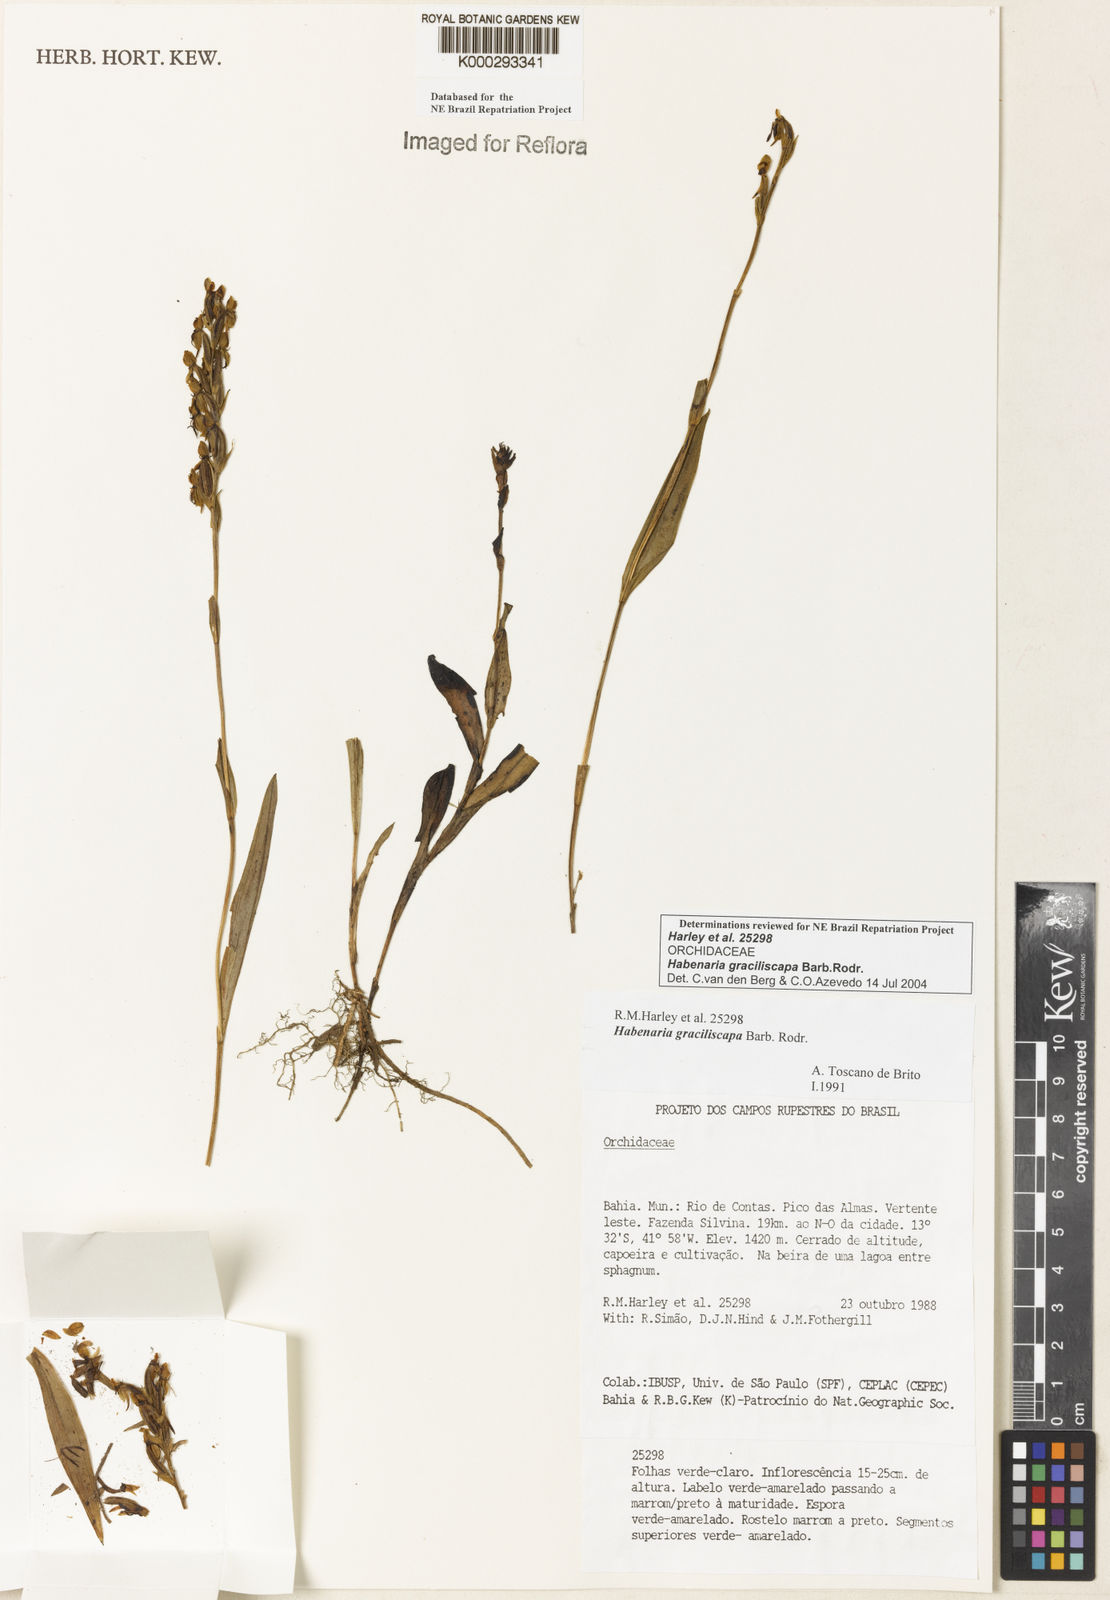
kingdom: Plantae
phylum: Tracheophyta
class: Liliopsida
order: Asparagales
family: Orchidaceae
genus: Habenaria
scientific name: Habenaria imbricata
